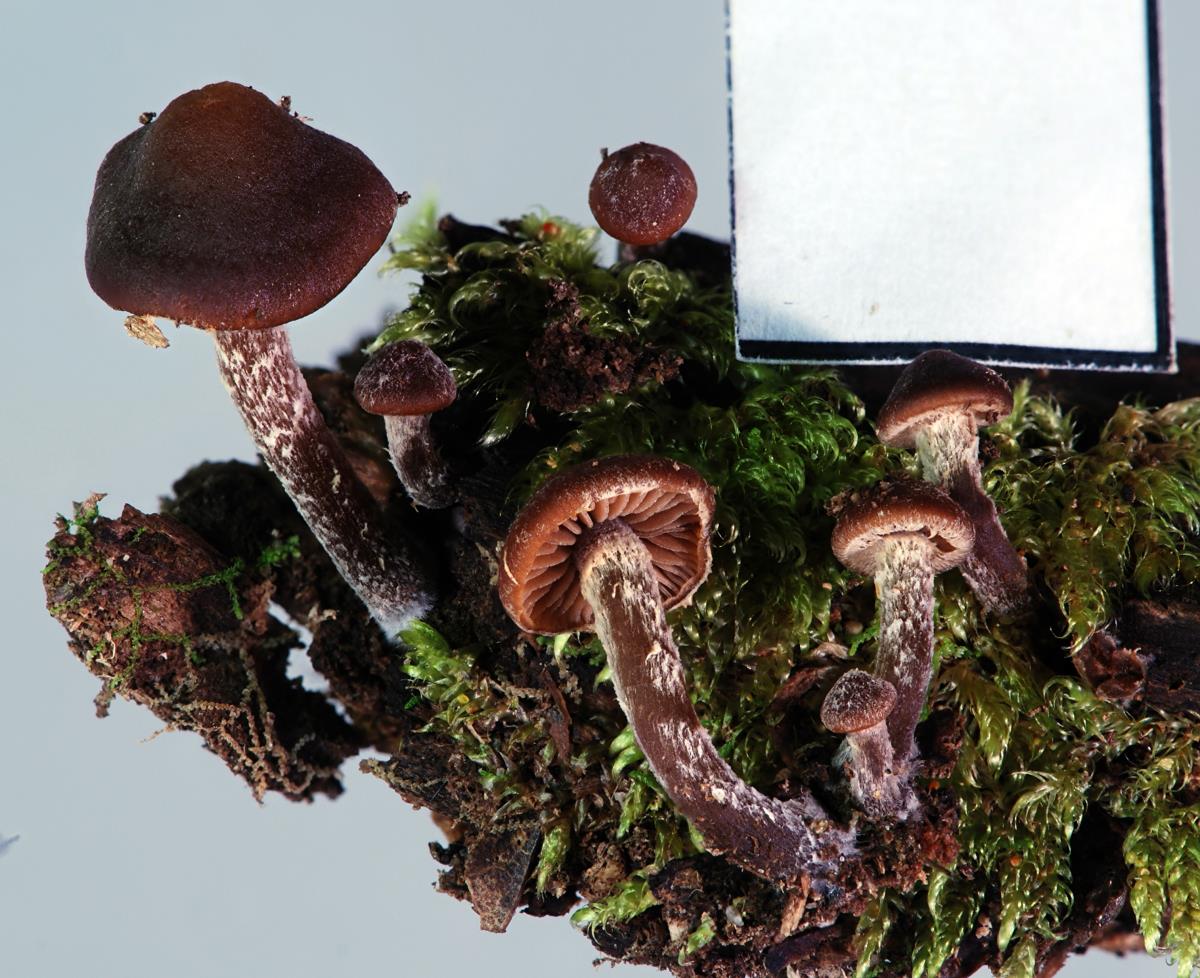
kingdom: Fungi
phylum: Basidiomycota
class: Agaricomycetes
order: Agaricales
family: Strophariaceae
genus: Kuehneromyces
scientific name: Kuehneromyces brunneoalbescens
